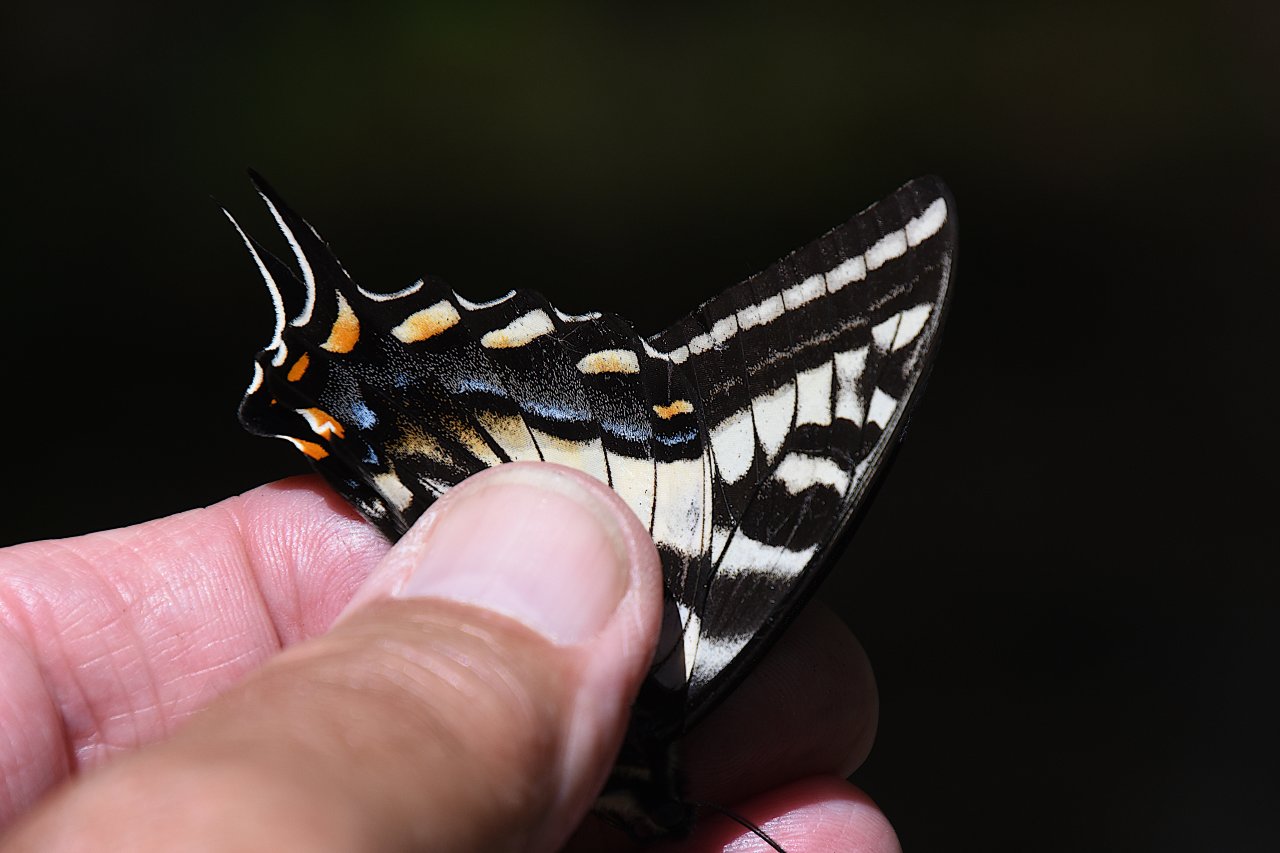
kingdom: Animalia
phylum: Arthropoda
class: Insecta
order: Lepidoptera
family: Papilionidae
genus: Pterourus
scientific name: Pterourus eurymedon
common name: Pale Swallowtail
